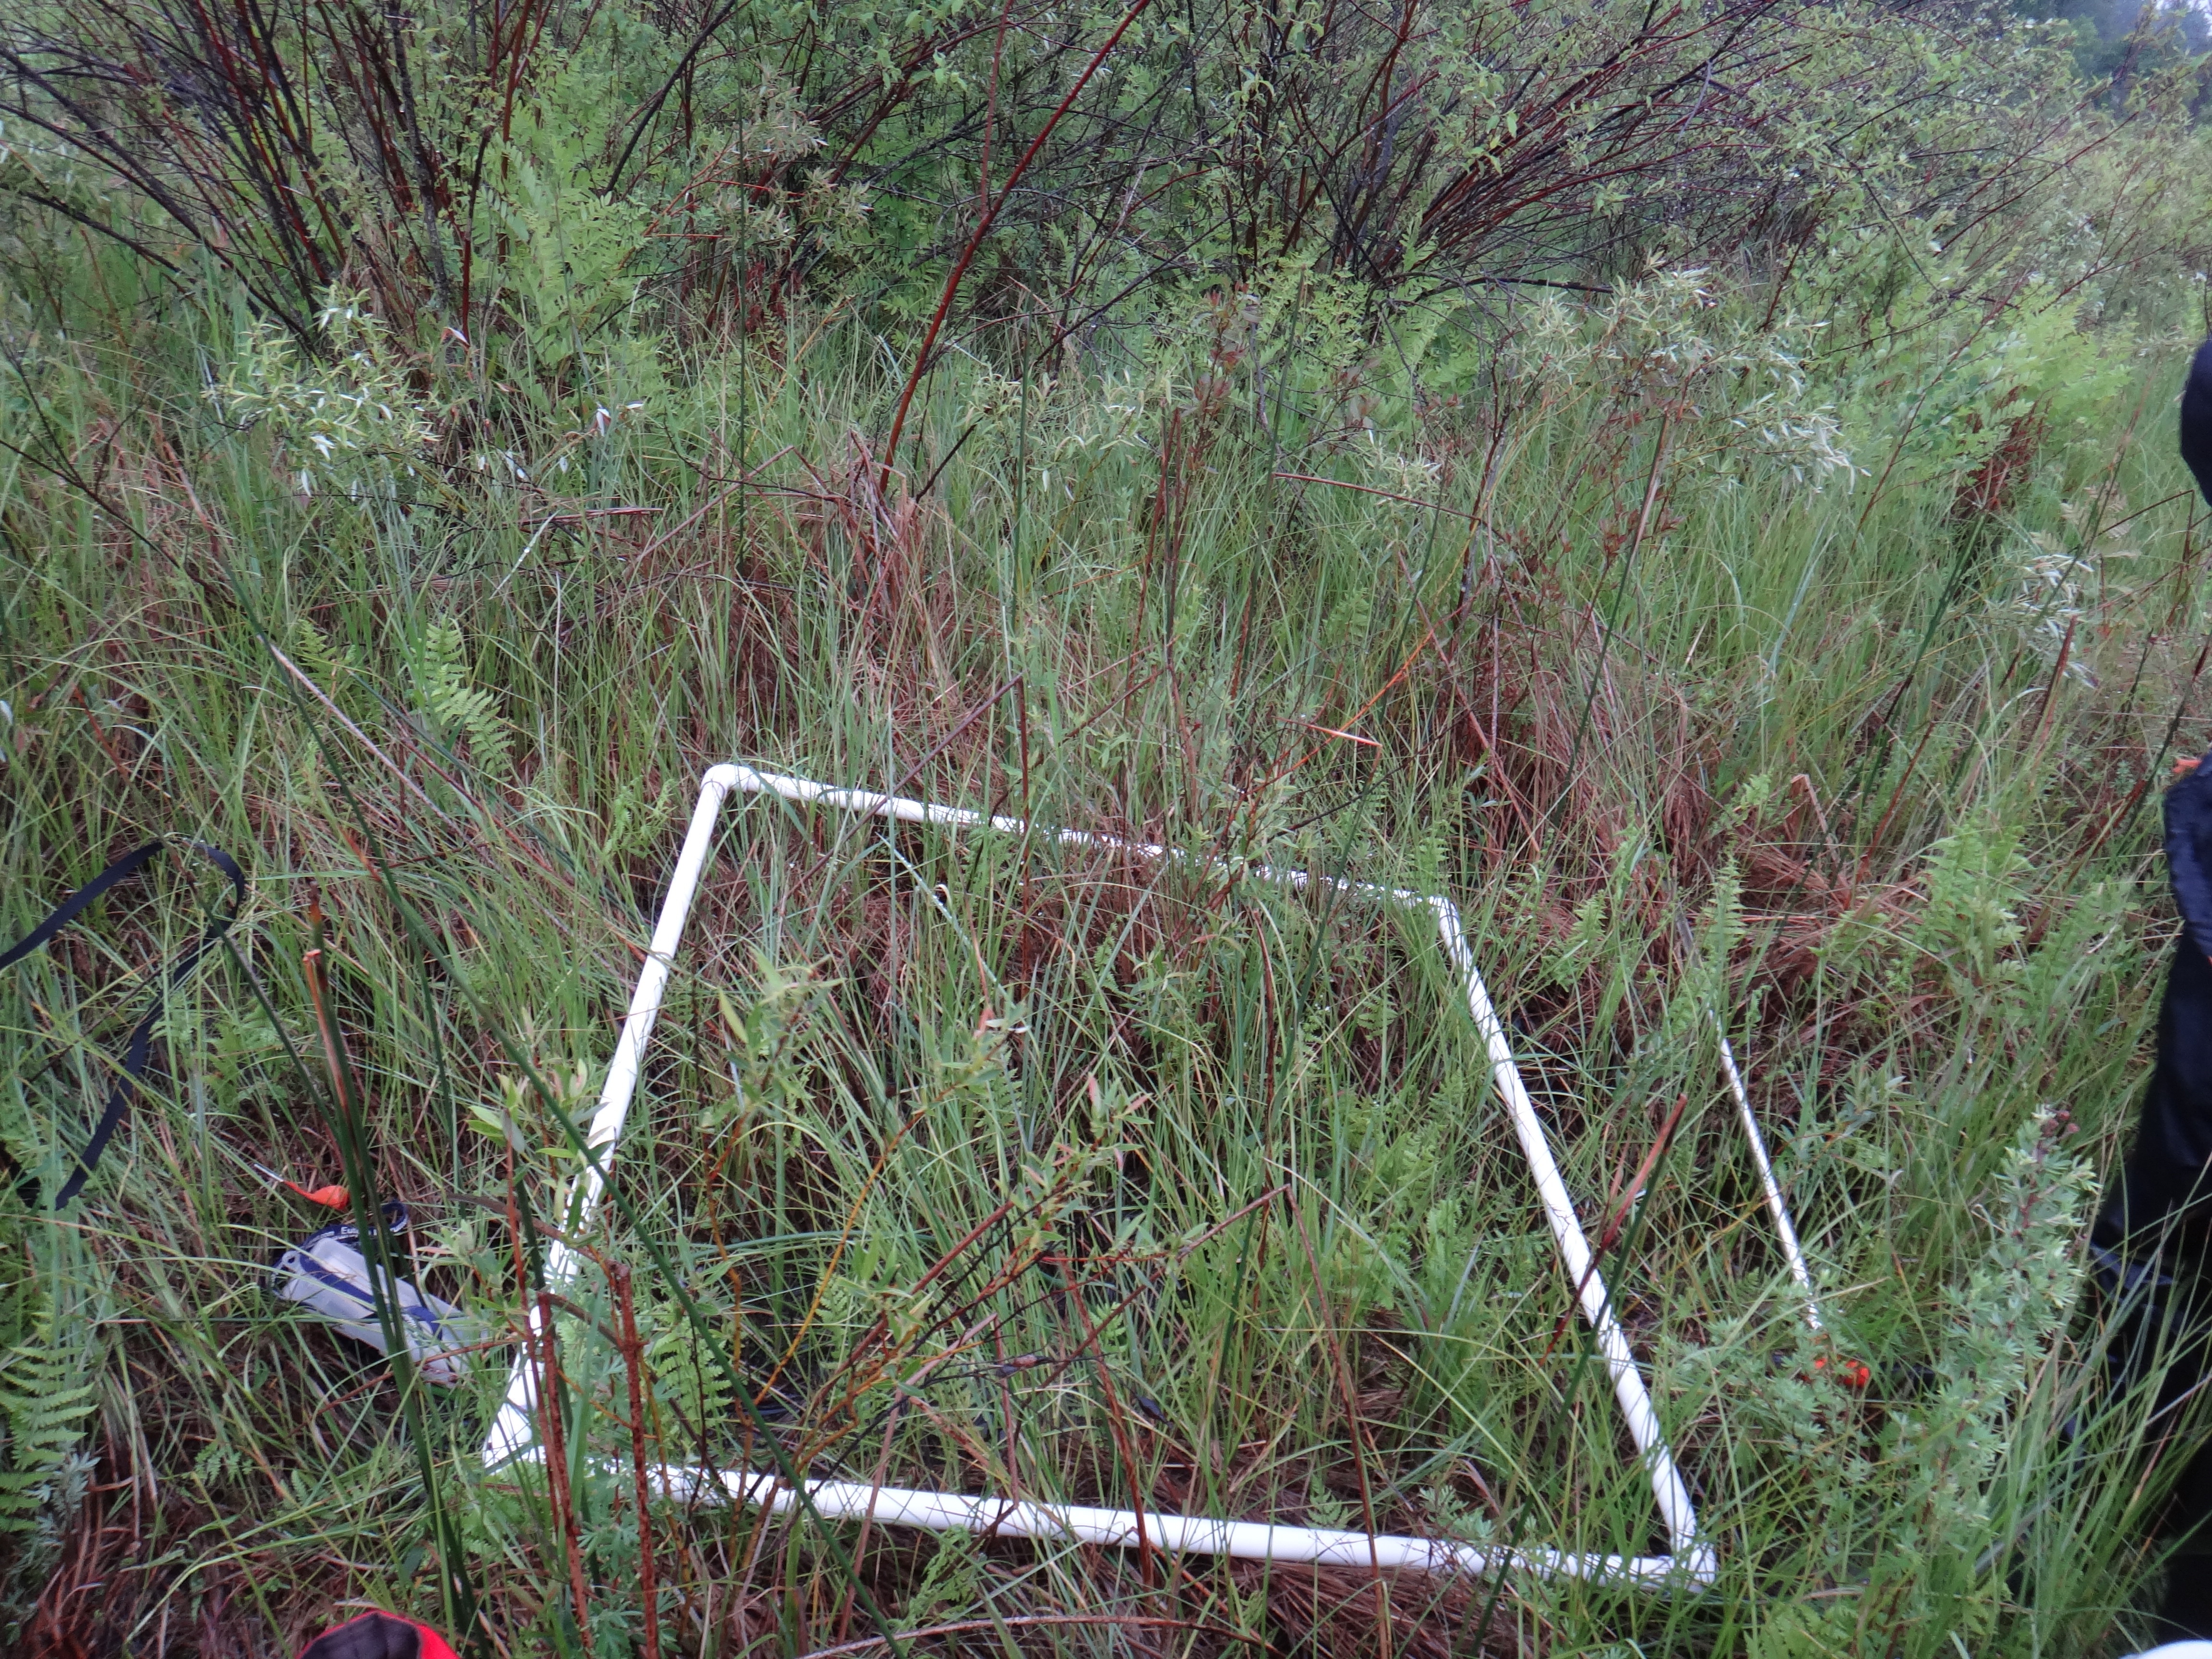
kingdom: Plantae
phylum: Tracheophyta
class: Liliopsida
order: Poales
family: Cyperaceae
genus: Carex
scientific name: Carex leptalea
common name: Bristly-stalked sedge
